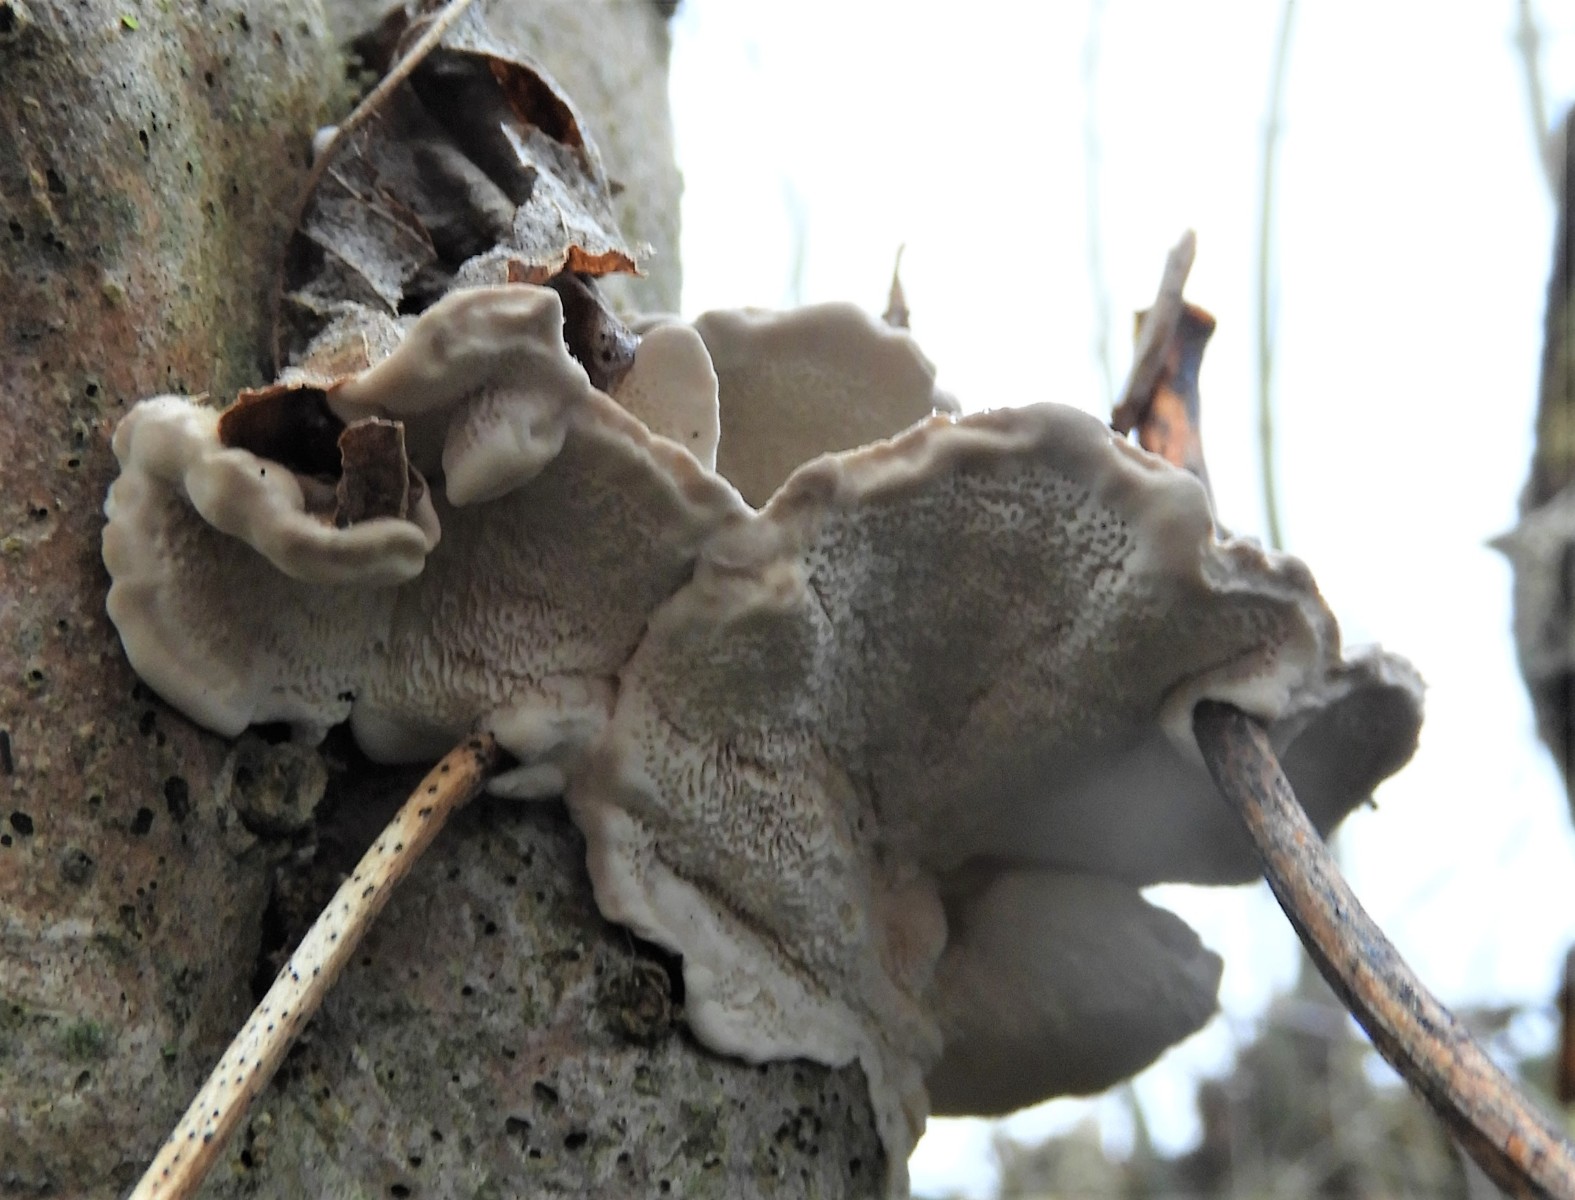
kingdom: Fungi
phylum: Basidiomycota
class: Agaricomycetes
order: Polyporales
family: Polyporaceae
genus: Trametes
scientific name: Trametes versicolor
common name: broget læderporesvamp
